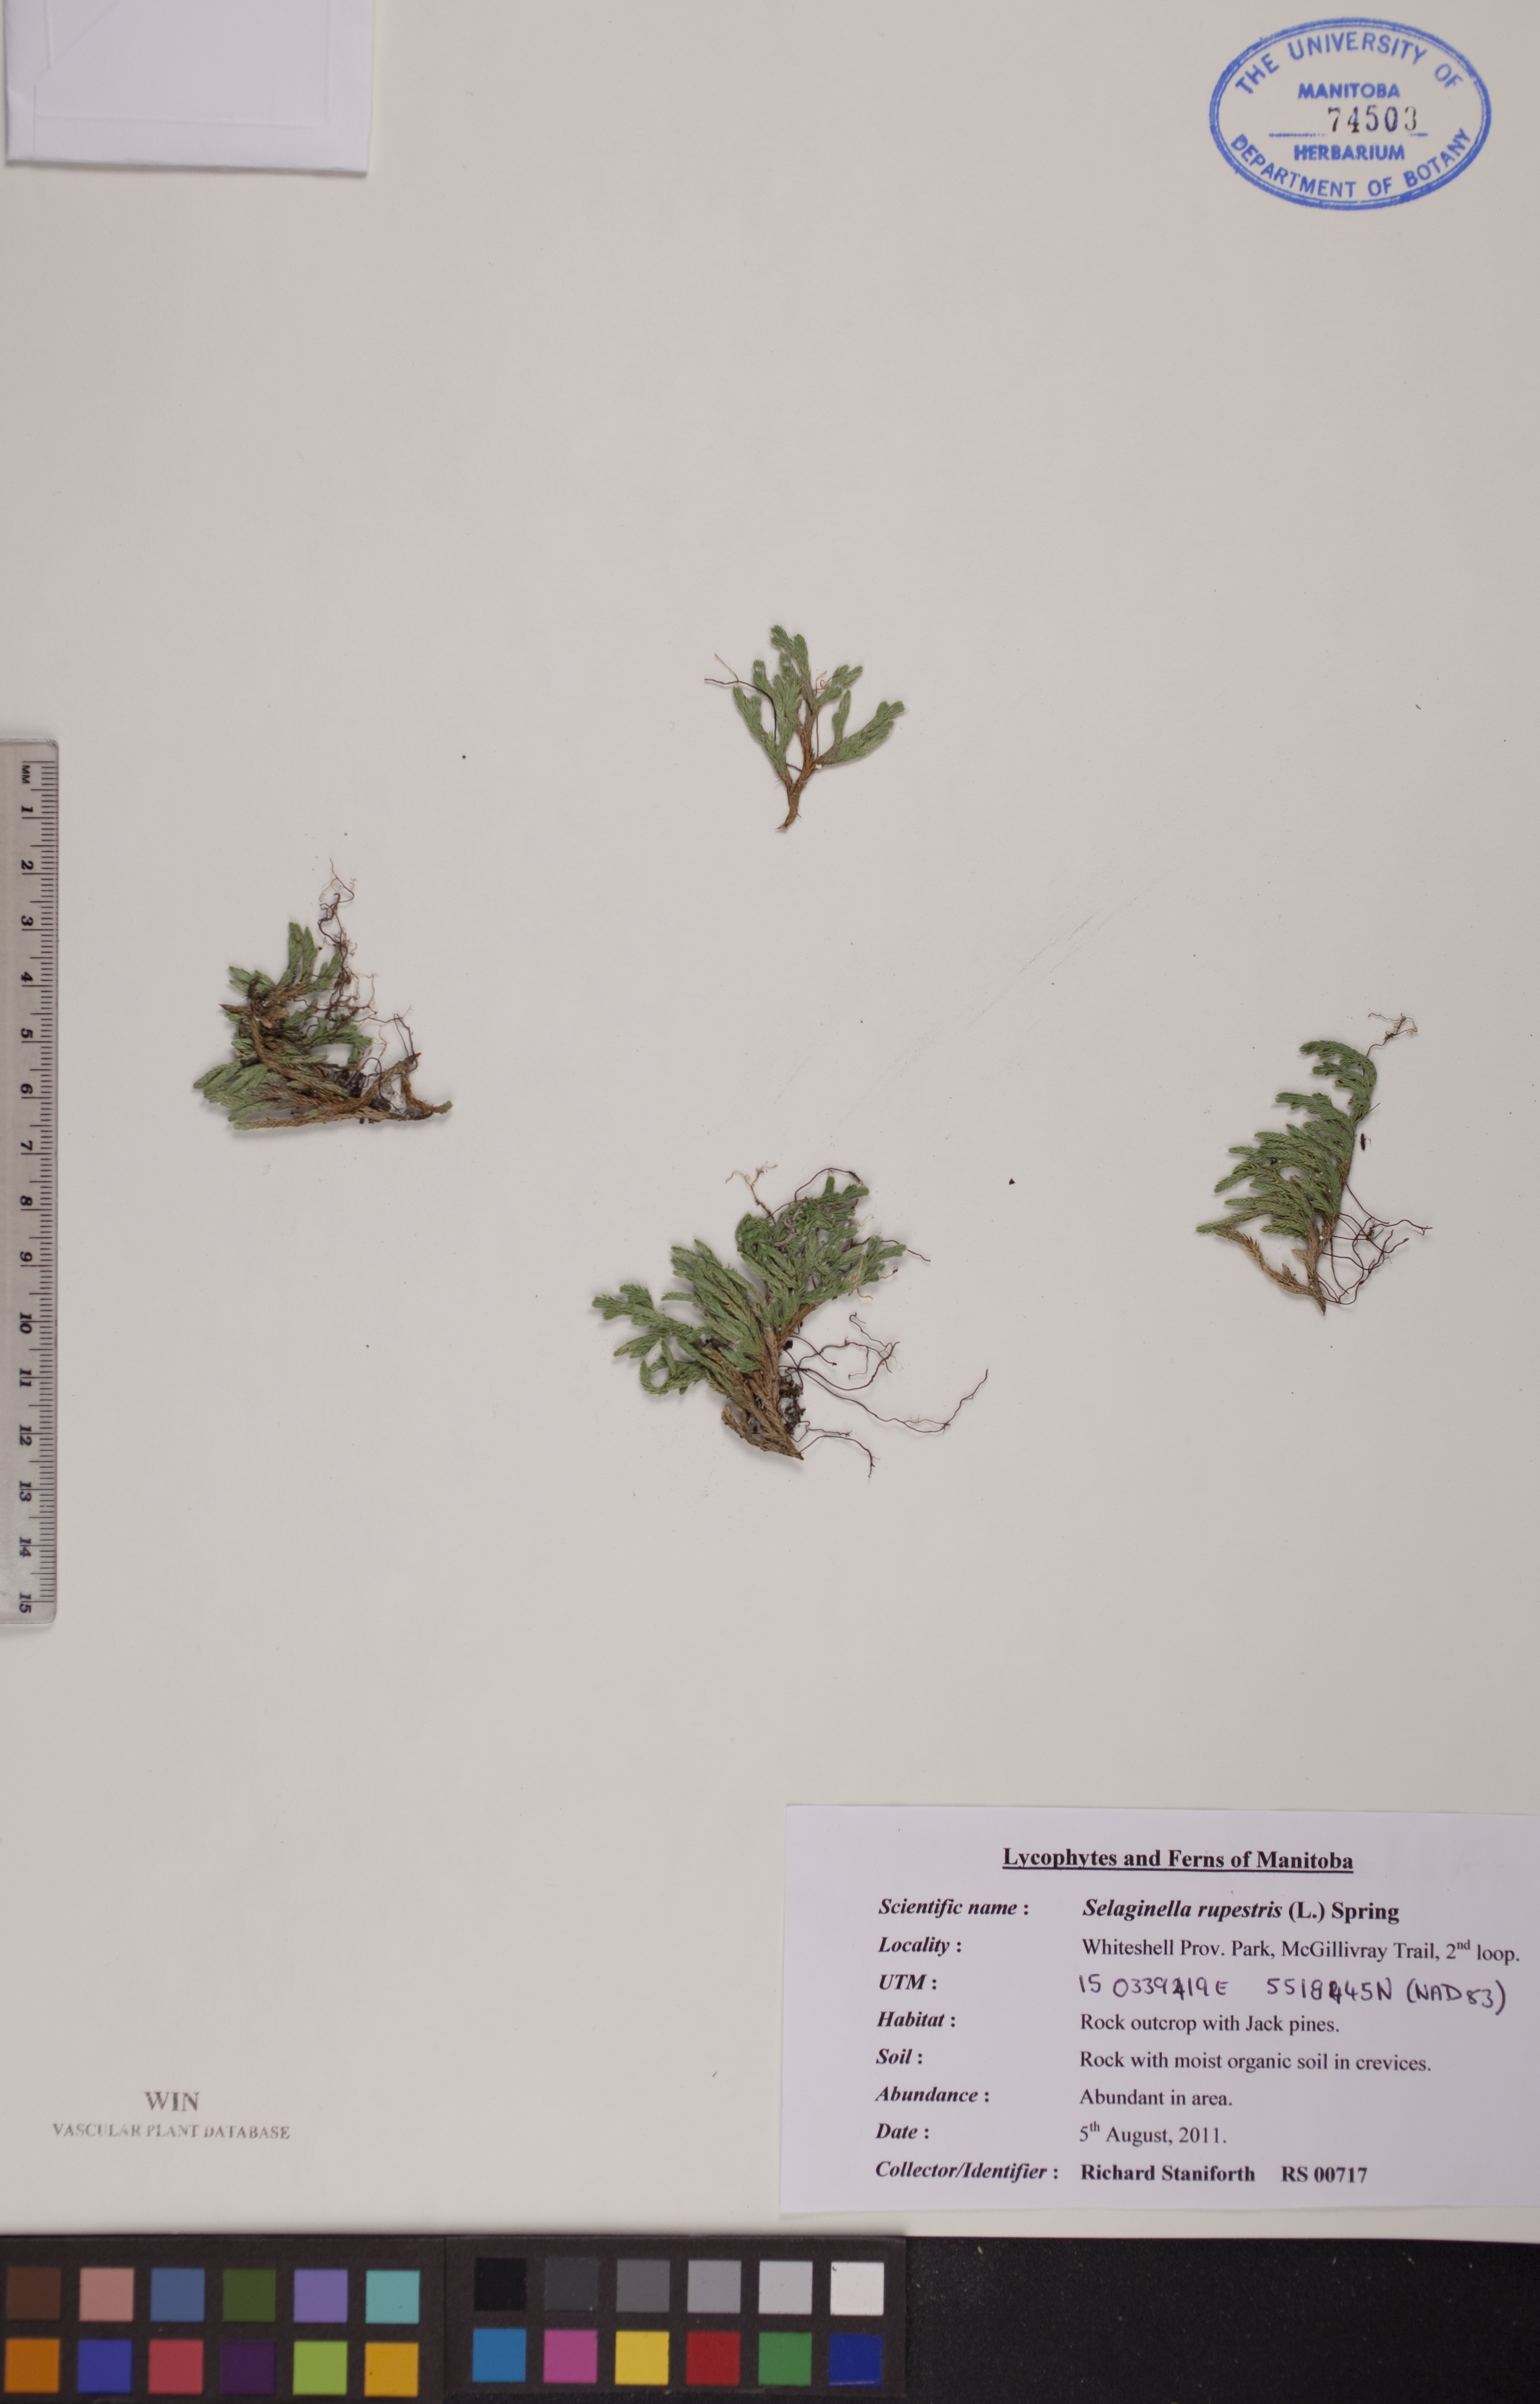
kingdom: Plantae
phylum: Tracheophyta
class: Lycopodiopsida
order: Selaginellales
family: Selaginellaceae
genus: Selaginella
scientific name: Selaginella rupestris
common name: Dwarf spikemoss
